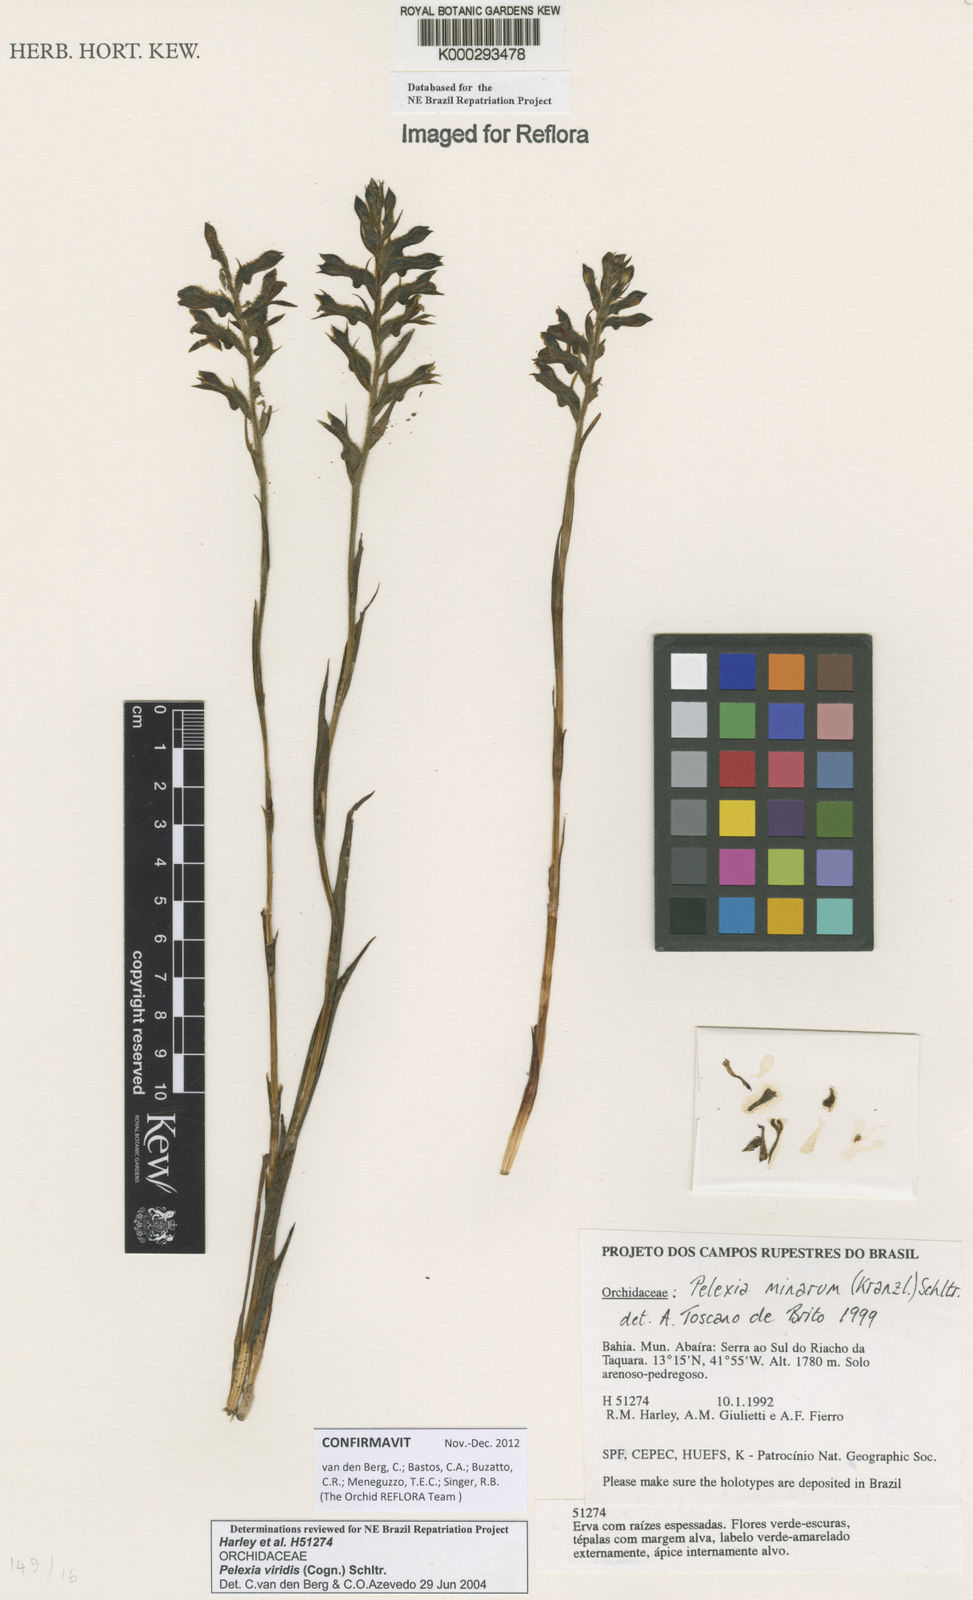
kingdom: Plantae
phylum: Tracheophyta
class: Liliopsida
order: Asparagales
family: Orchidaceae
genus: Pelexia
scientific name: Pelexia viridis
